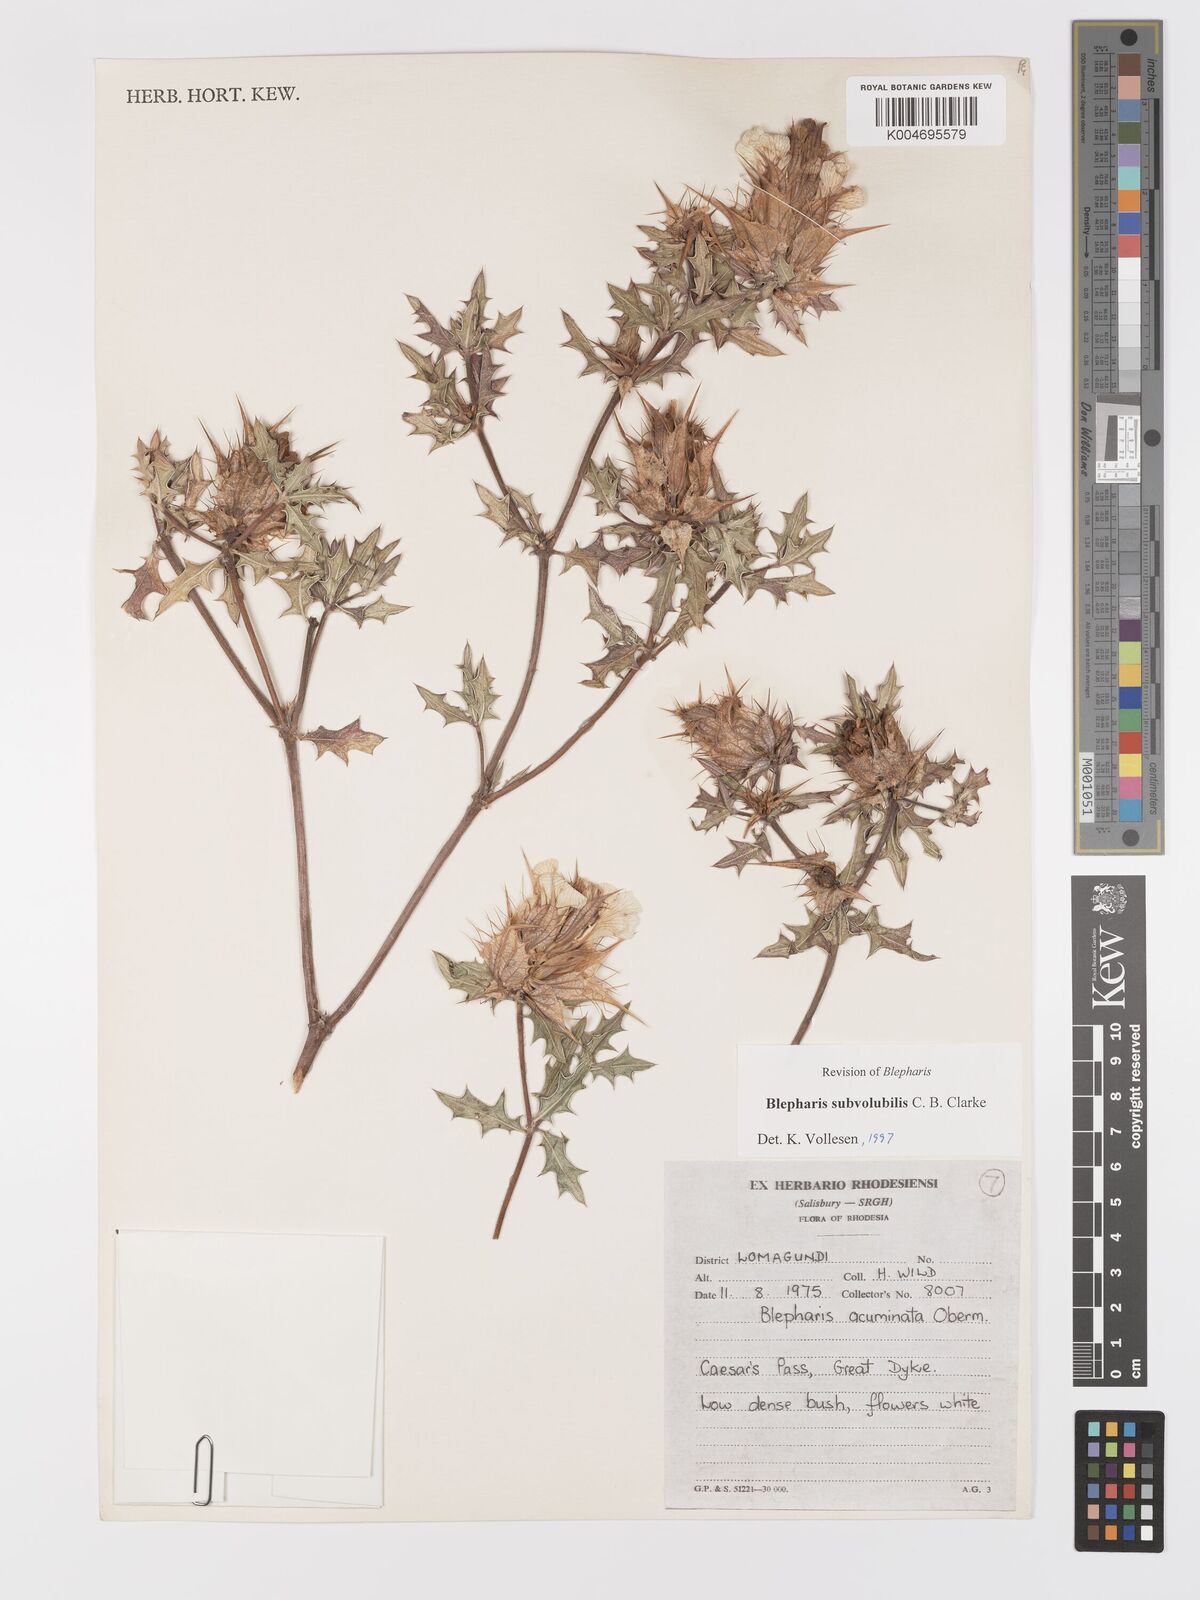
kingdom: Plantae
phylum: Tracheophyta
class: Magnoliopsida
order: Lamiales
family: Acanthaceae
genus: Blepharis
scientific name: Blepharis subvolubilis
